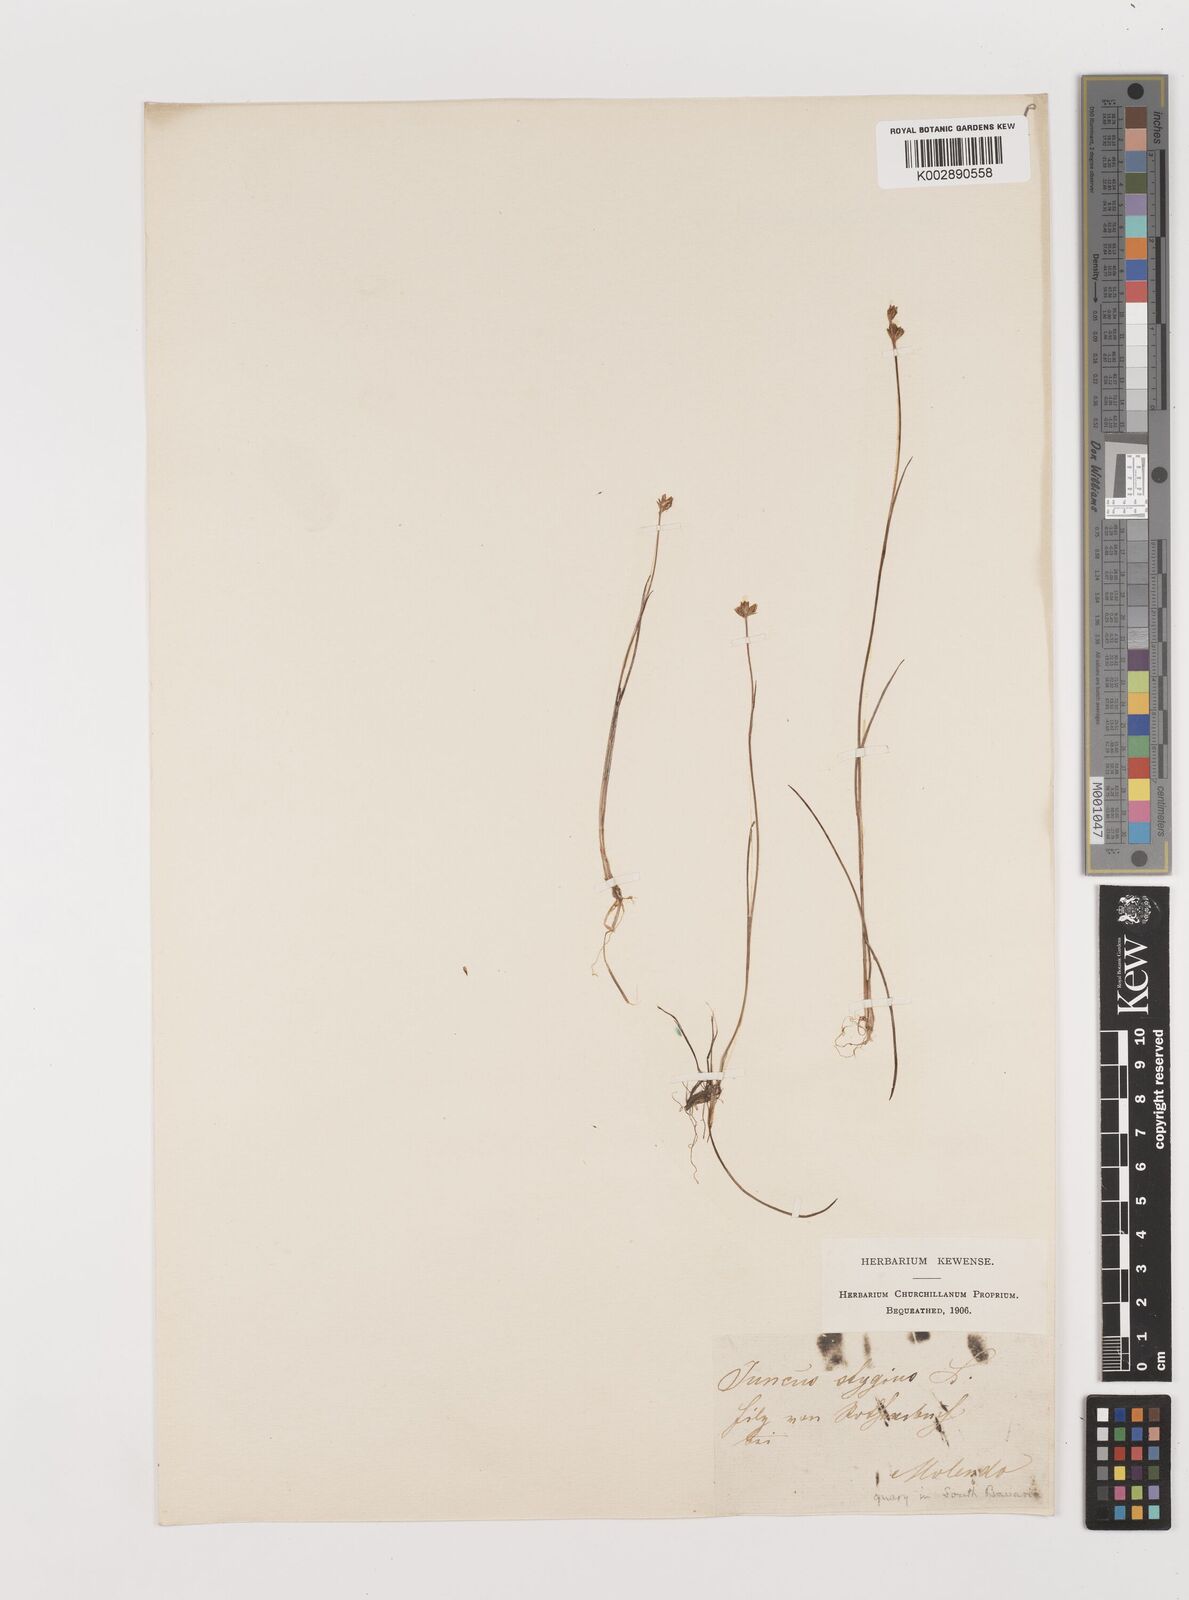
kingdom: Plantae
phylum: Tracheophyta
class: Liliopsida
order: Poales
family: Juncaceae
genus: Juncus
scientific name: Juncus stygius
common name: Bog rush
